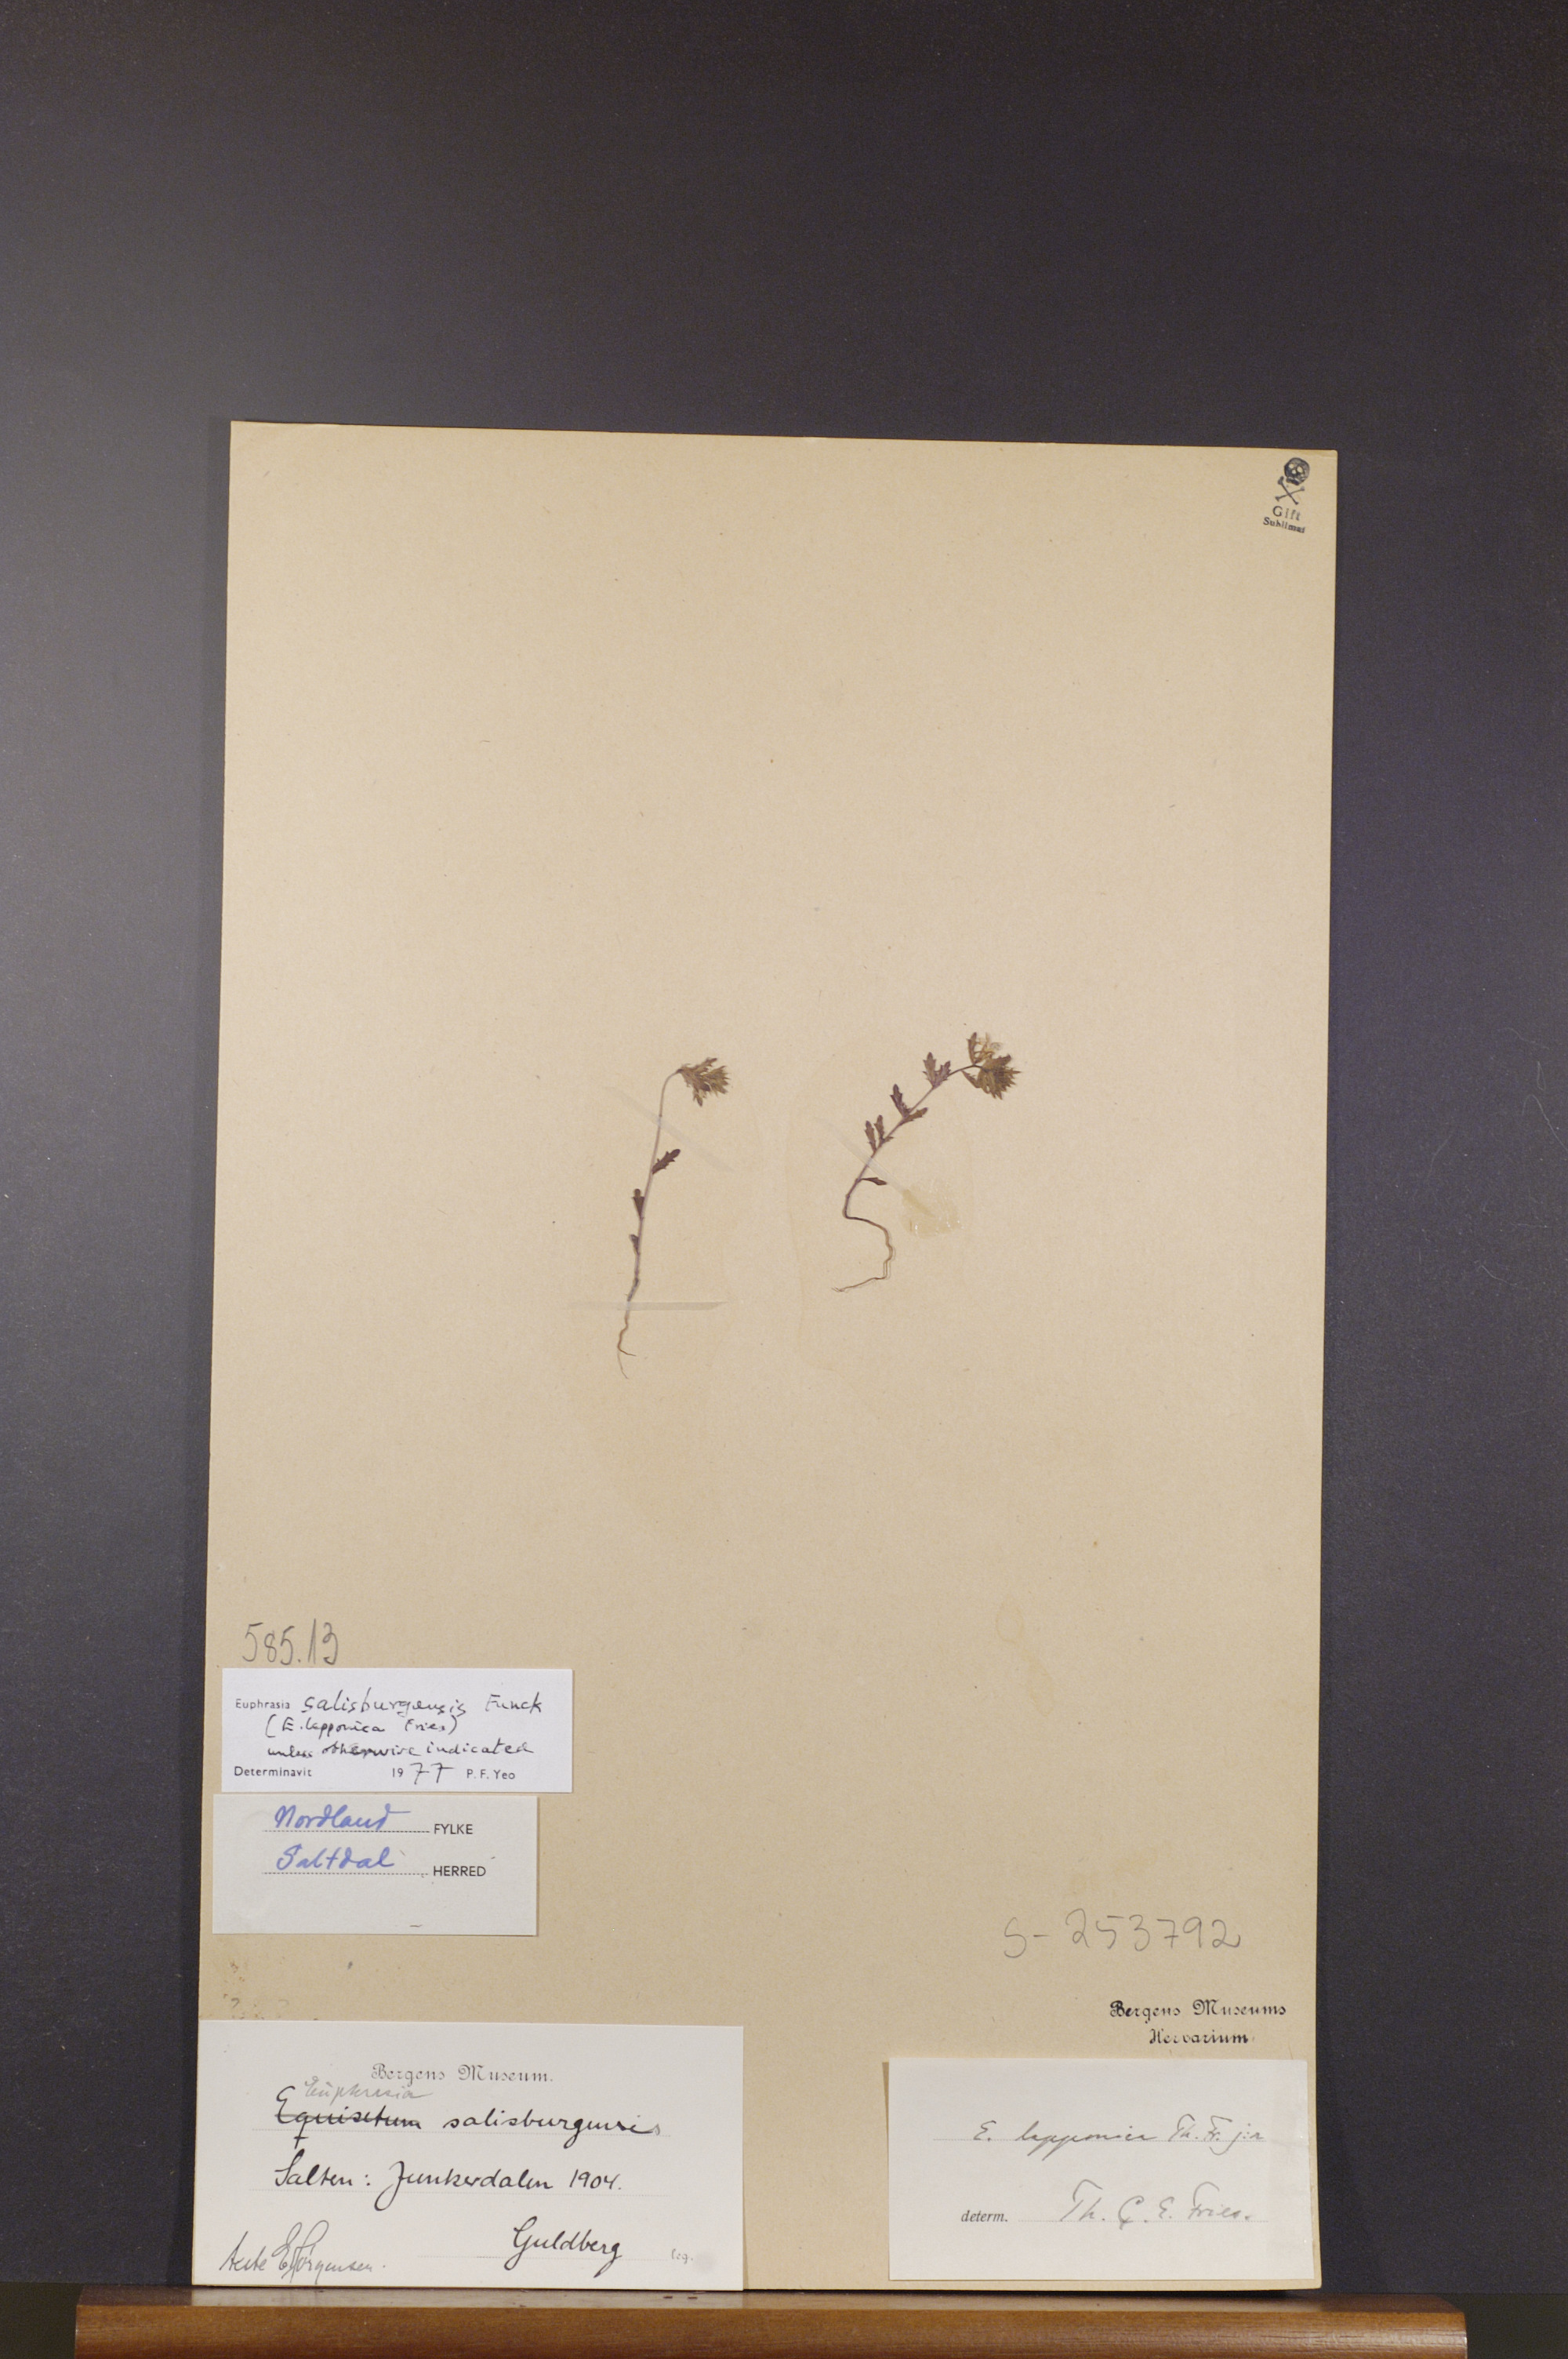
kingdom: Plantae
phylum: Tracheophyta
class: Magnoliopsida
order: Lamiales
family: Orobanchaceae
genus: Euphrasia
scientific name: Euphrasia salisburgensis
